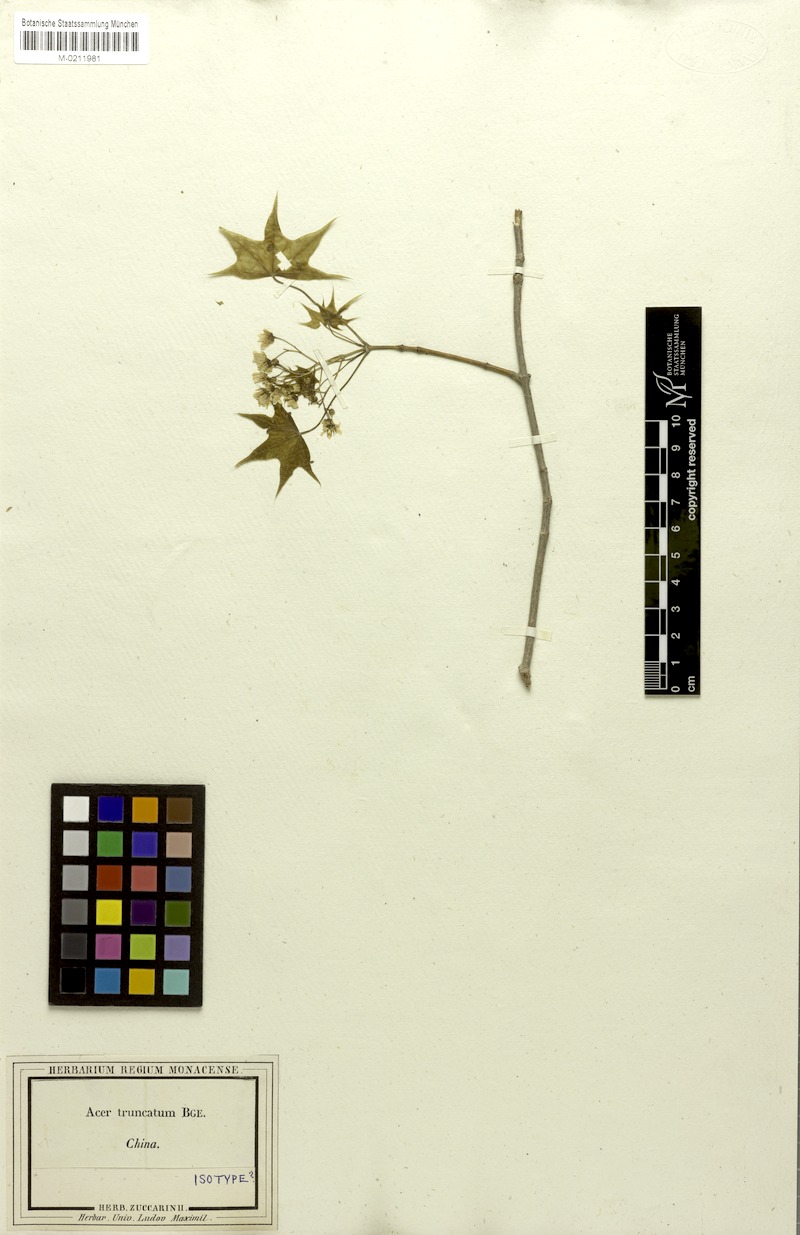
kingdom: Plantae
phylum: Tracheophyta
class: Magnoliopsida
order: Sapindales
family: Sapindaceae
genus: Acer
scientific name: Acer truncatum
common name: Shantung maple
